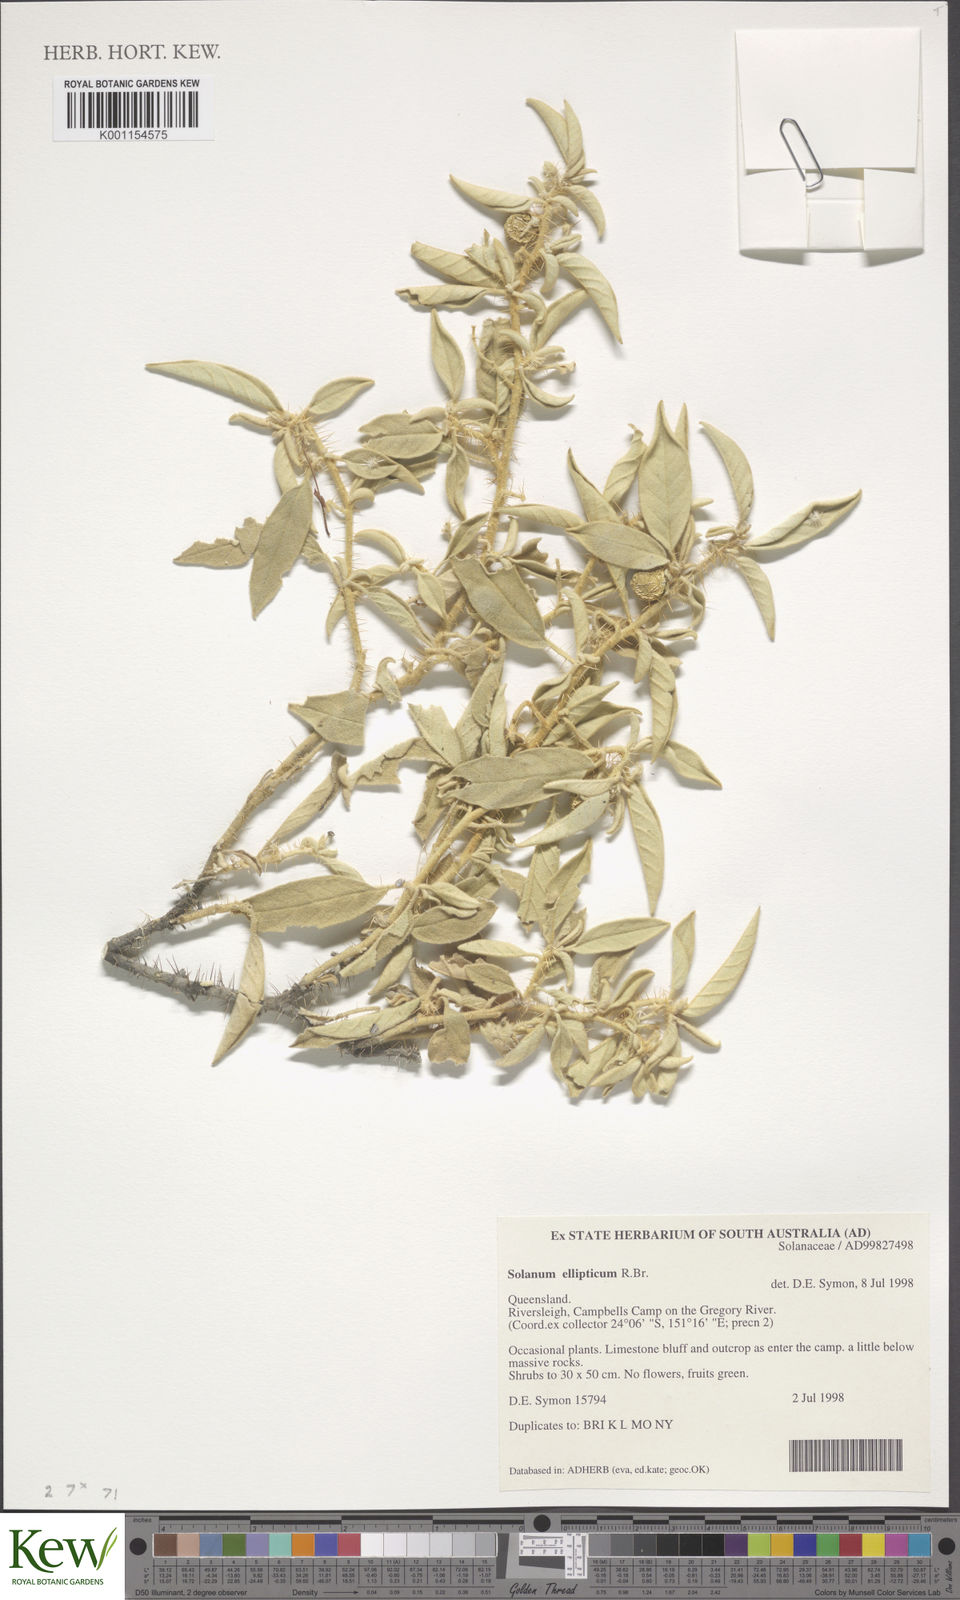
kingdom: Plantae
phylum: Tracheophyta
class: Magnoliopsida
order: Solanales
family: Solanaceae
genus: Solanum
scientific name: Solanum ellipticum
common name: Potato-bush
